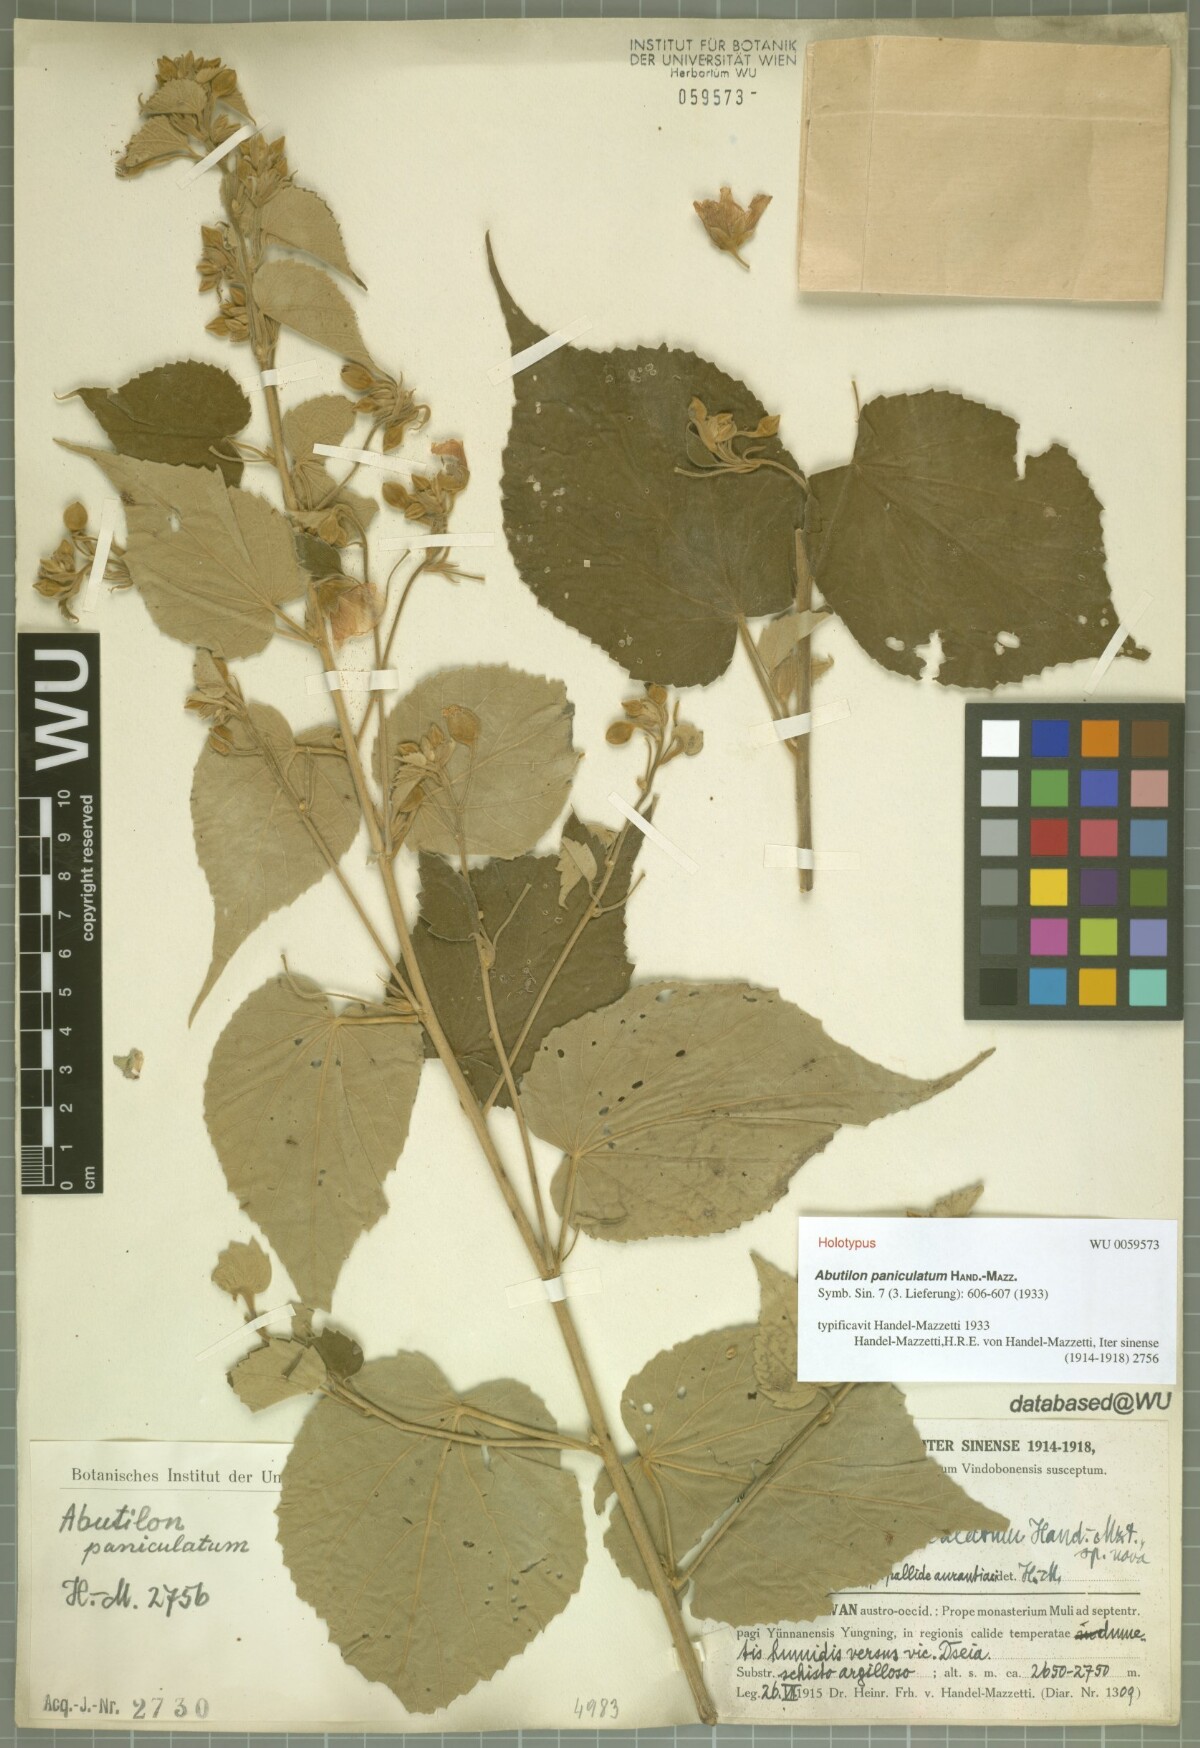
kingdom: Plantae
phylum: Tracheophyta
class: Magnoliopsida
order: Malvales
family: Malvaceae
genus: Abutilon
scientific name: Abutilon paniculatum
